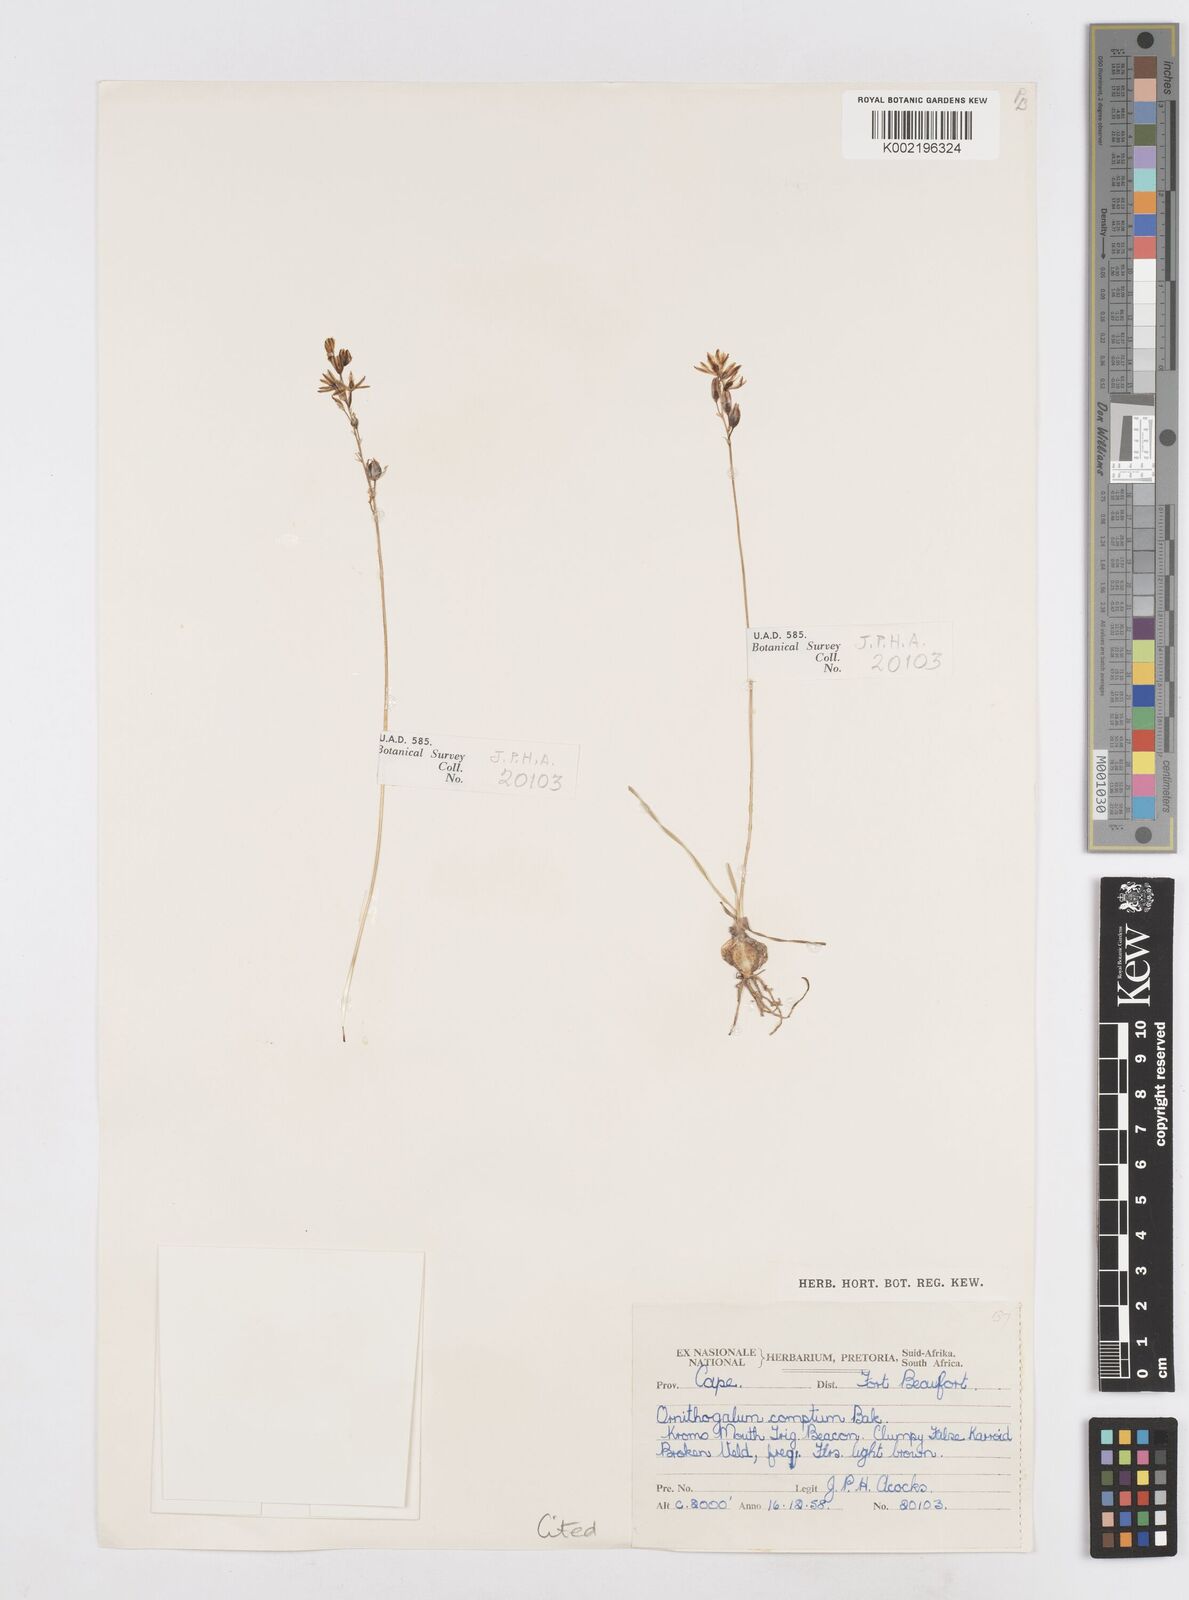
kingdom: Plantae
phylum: Tracheophyta
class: Liliopsida
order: Asparagales
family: Asparagaceae
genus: Ornithogalum
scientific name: Ornithogalum juncifolium
